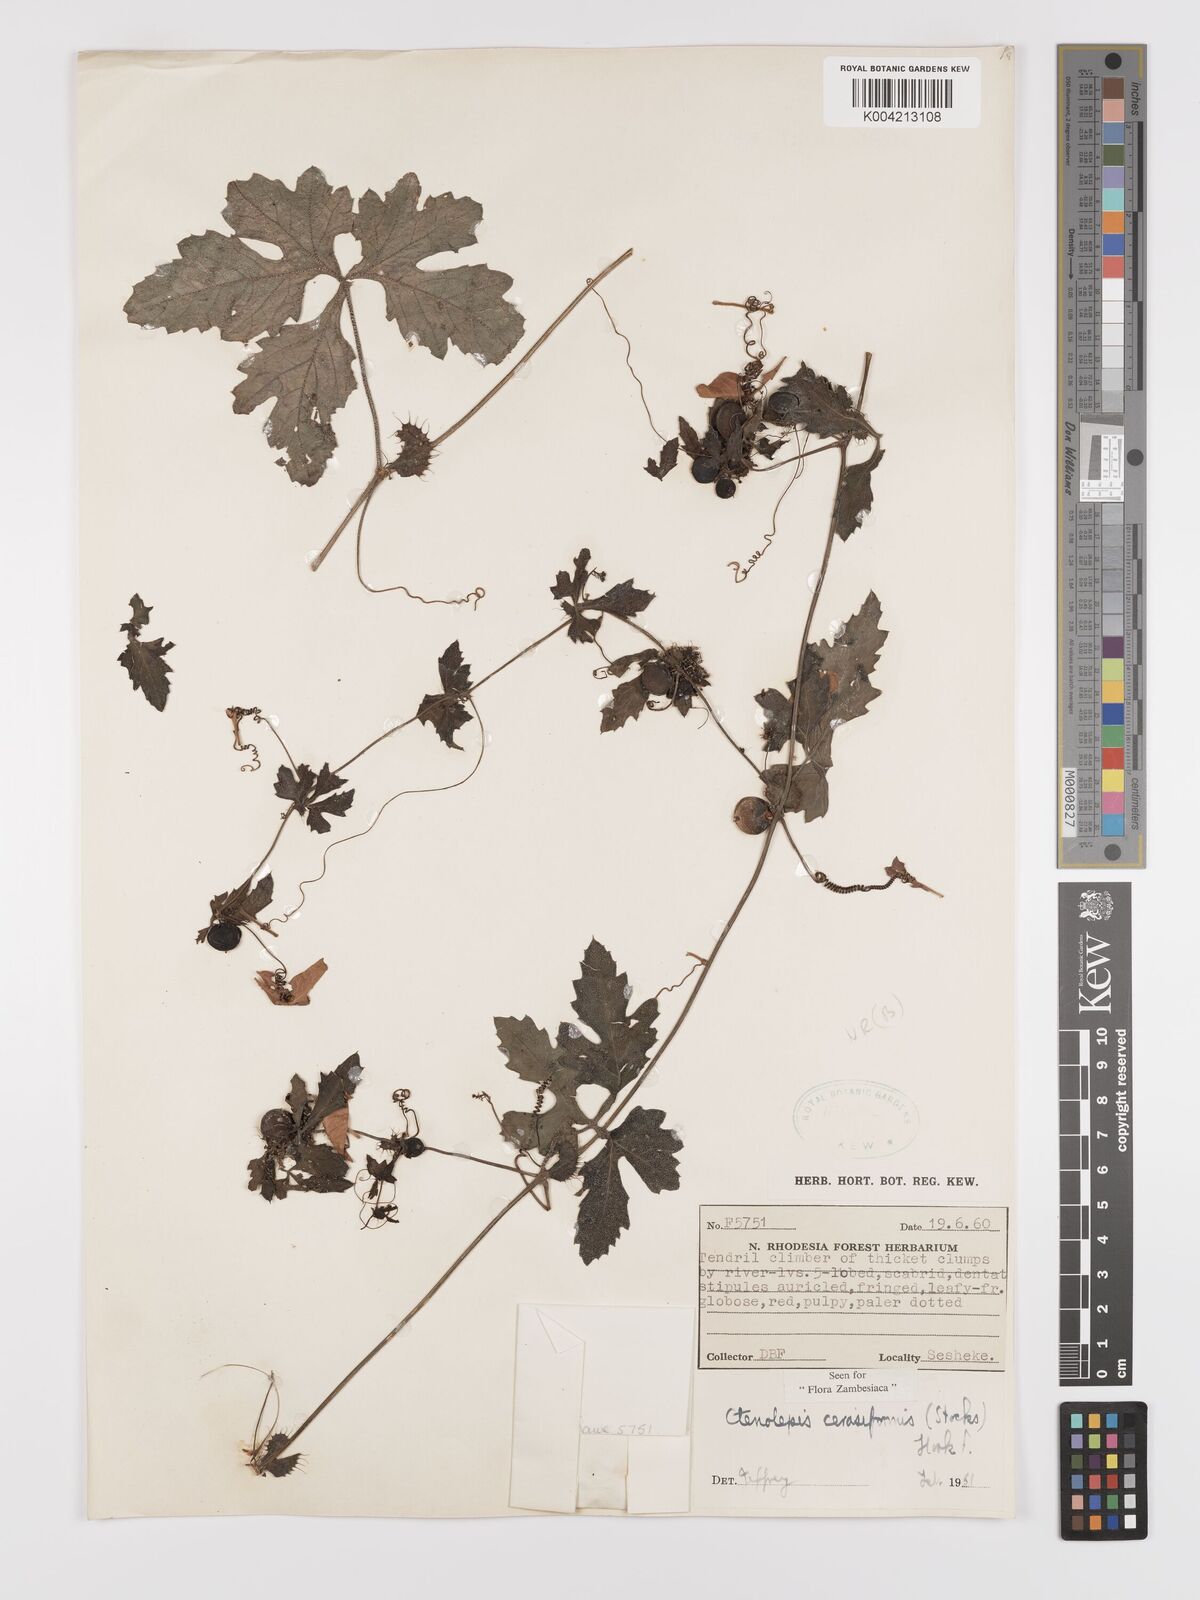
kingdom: Plantae
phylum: Tracheophyta
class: Magnoliopsida
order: Cucurbitales
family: Cucurbitaceae
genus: Blastania
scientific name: Blastania cerasiformis
